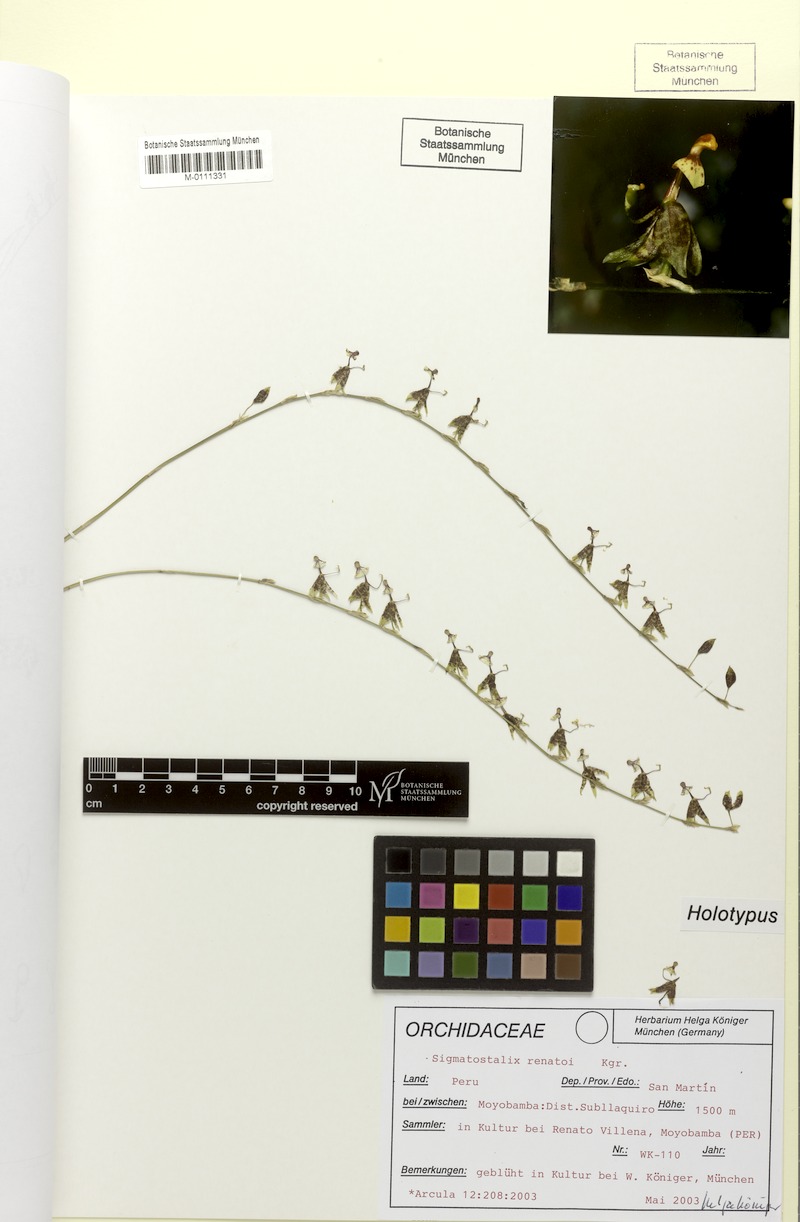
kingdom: Plantae
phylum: Tracheophyta
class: Liliopsida
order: Asparagales
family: Orchidaceae
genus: Oncidium
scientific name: Oncidium renatoi
